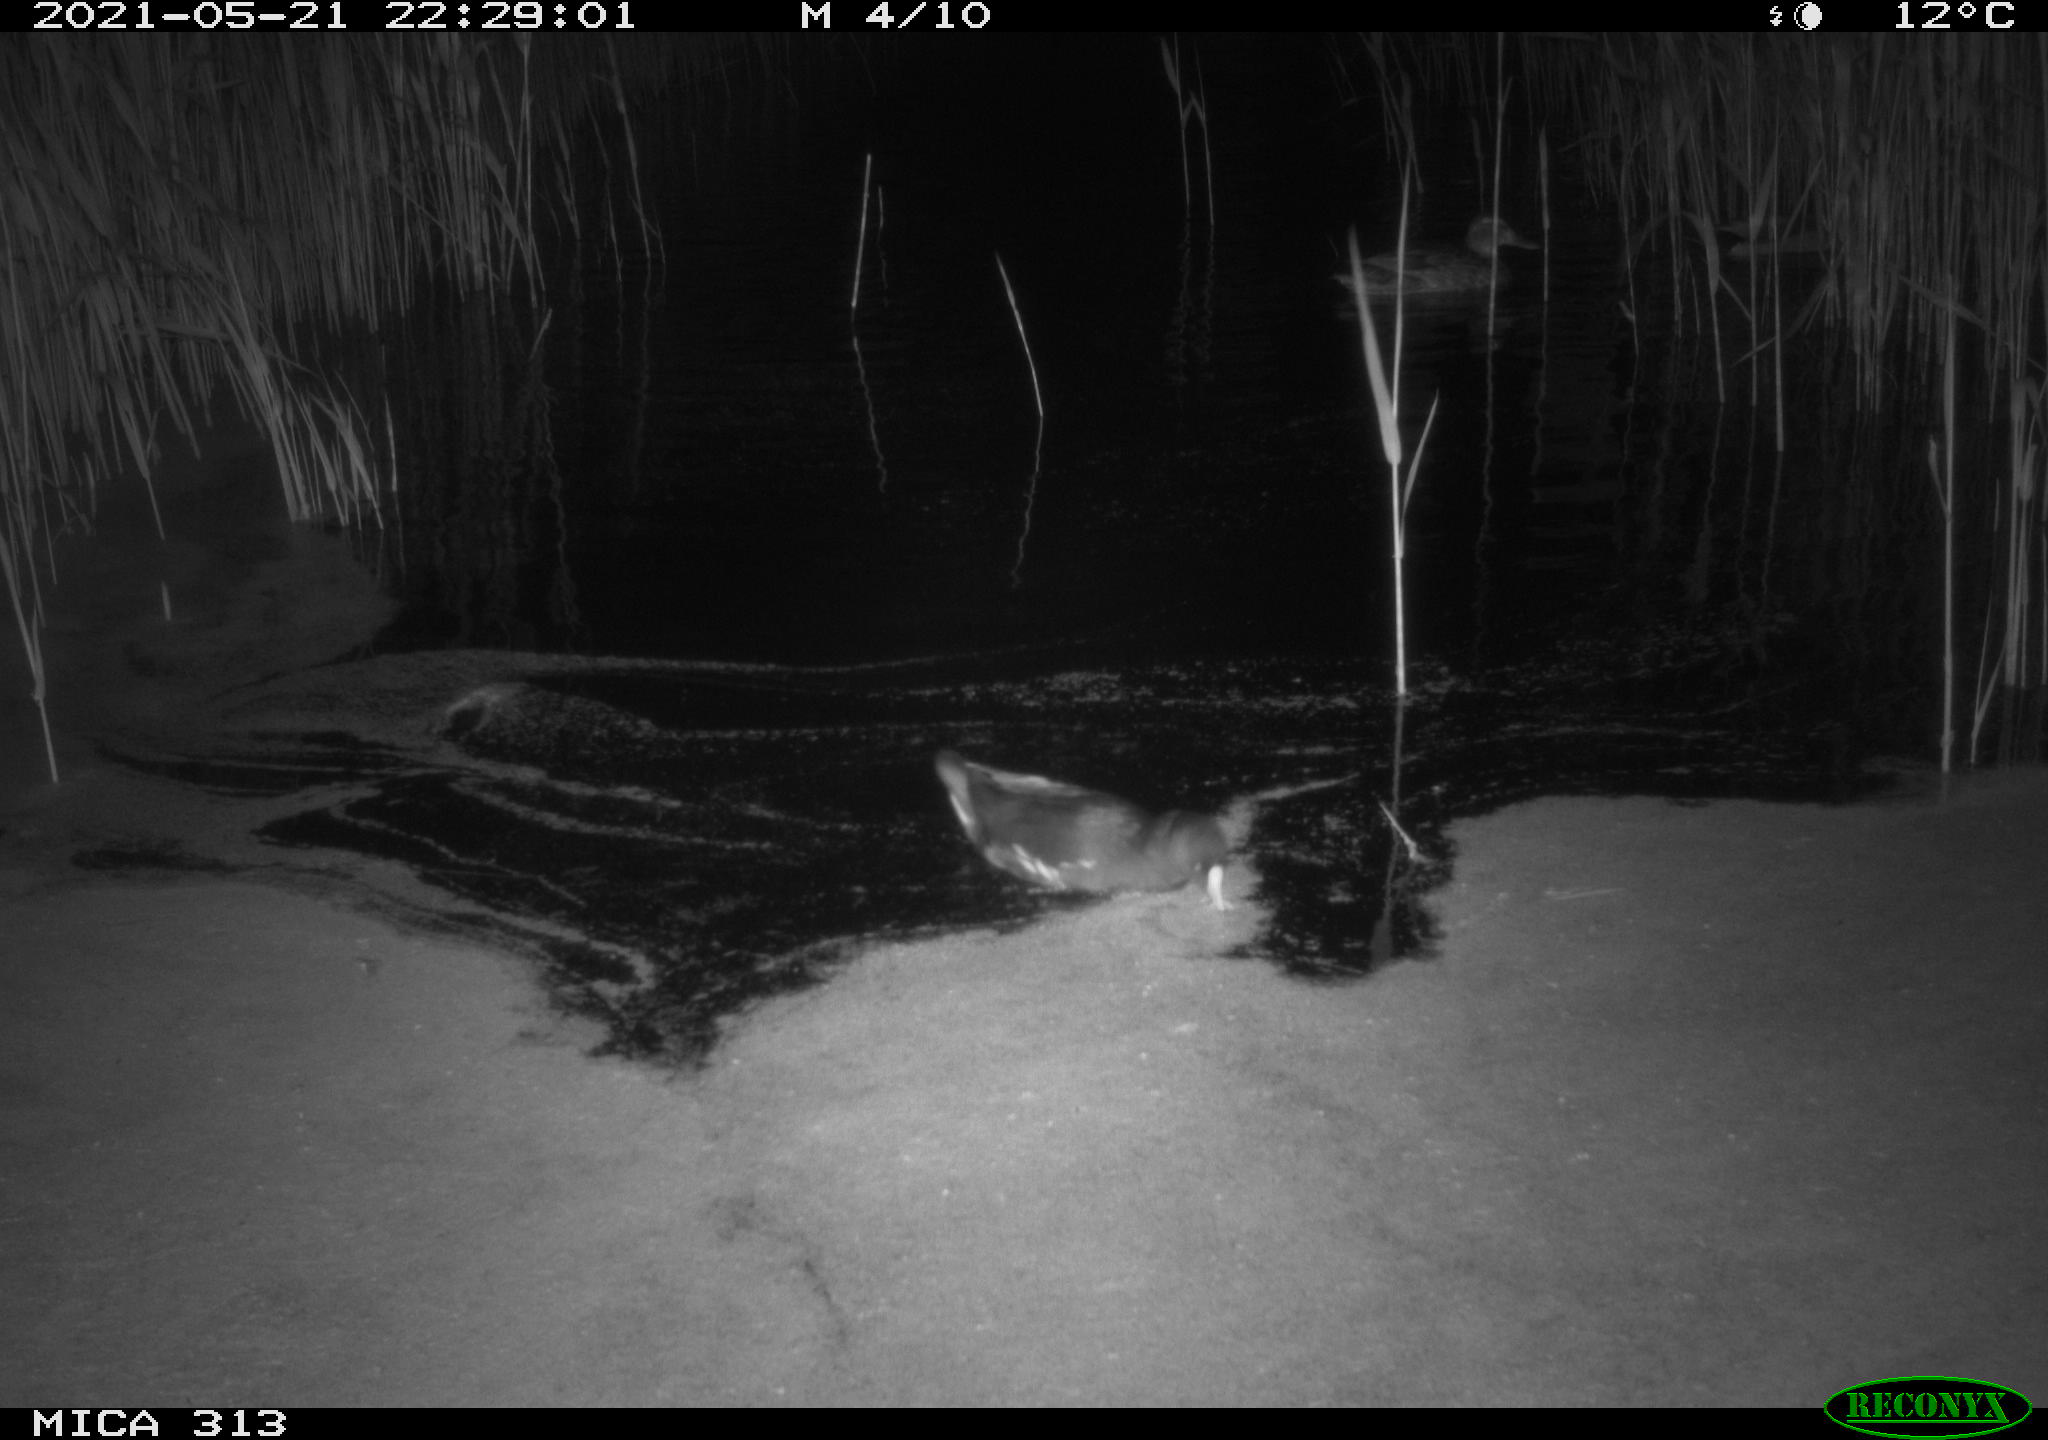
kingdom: Animalia
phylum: Chordata
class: Aves
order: Gruiformes
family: Rallidae
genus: Gallinula
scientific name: Gallinula chloropus
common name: Common moorhen
